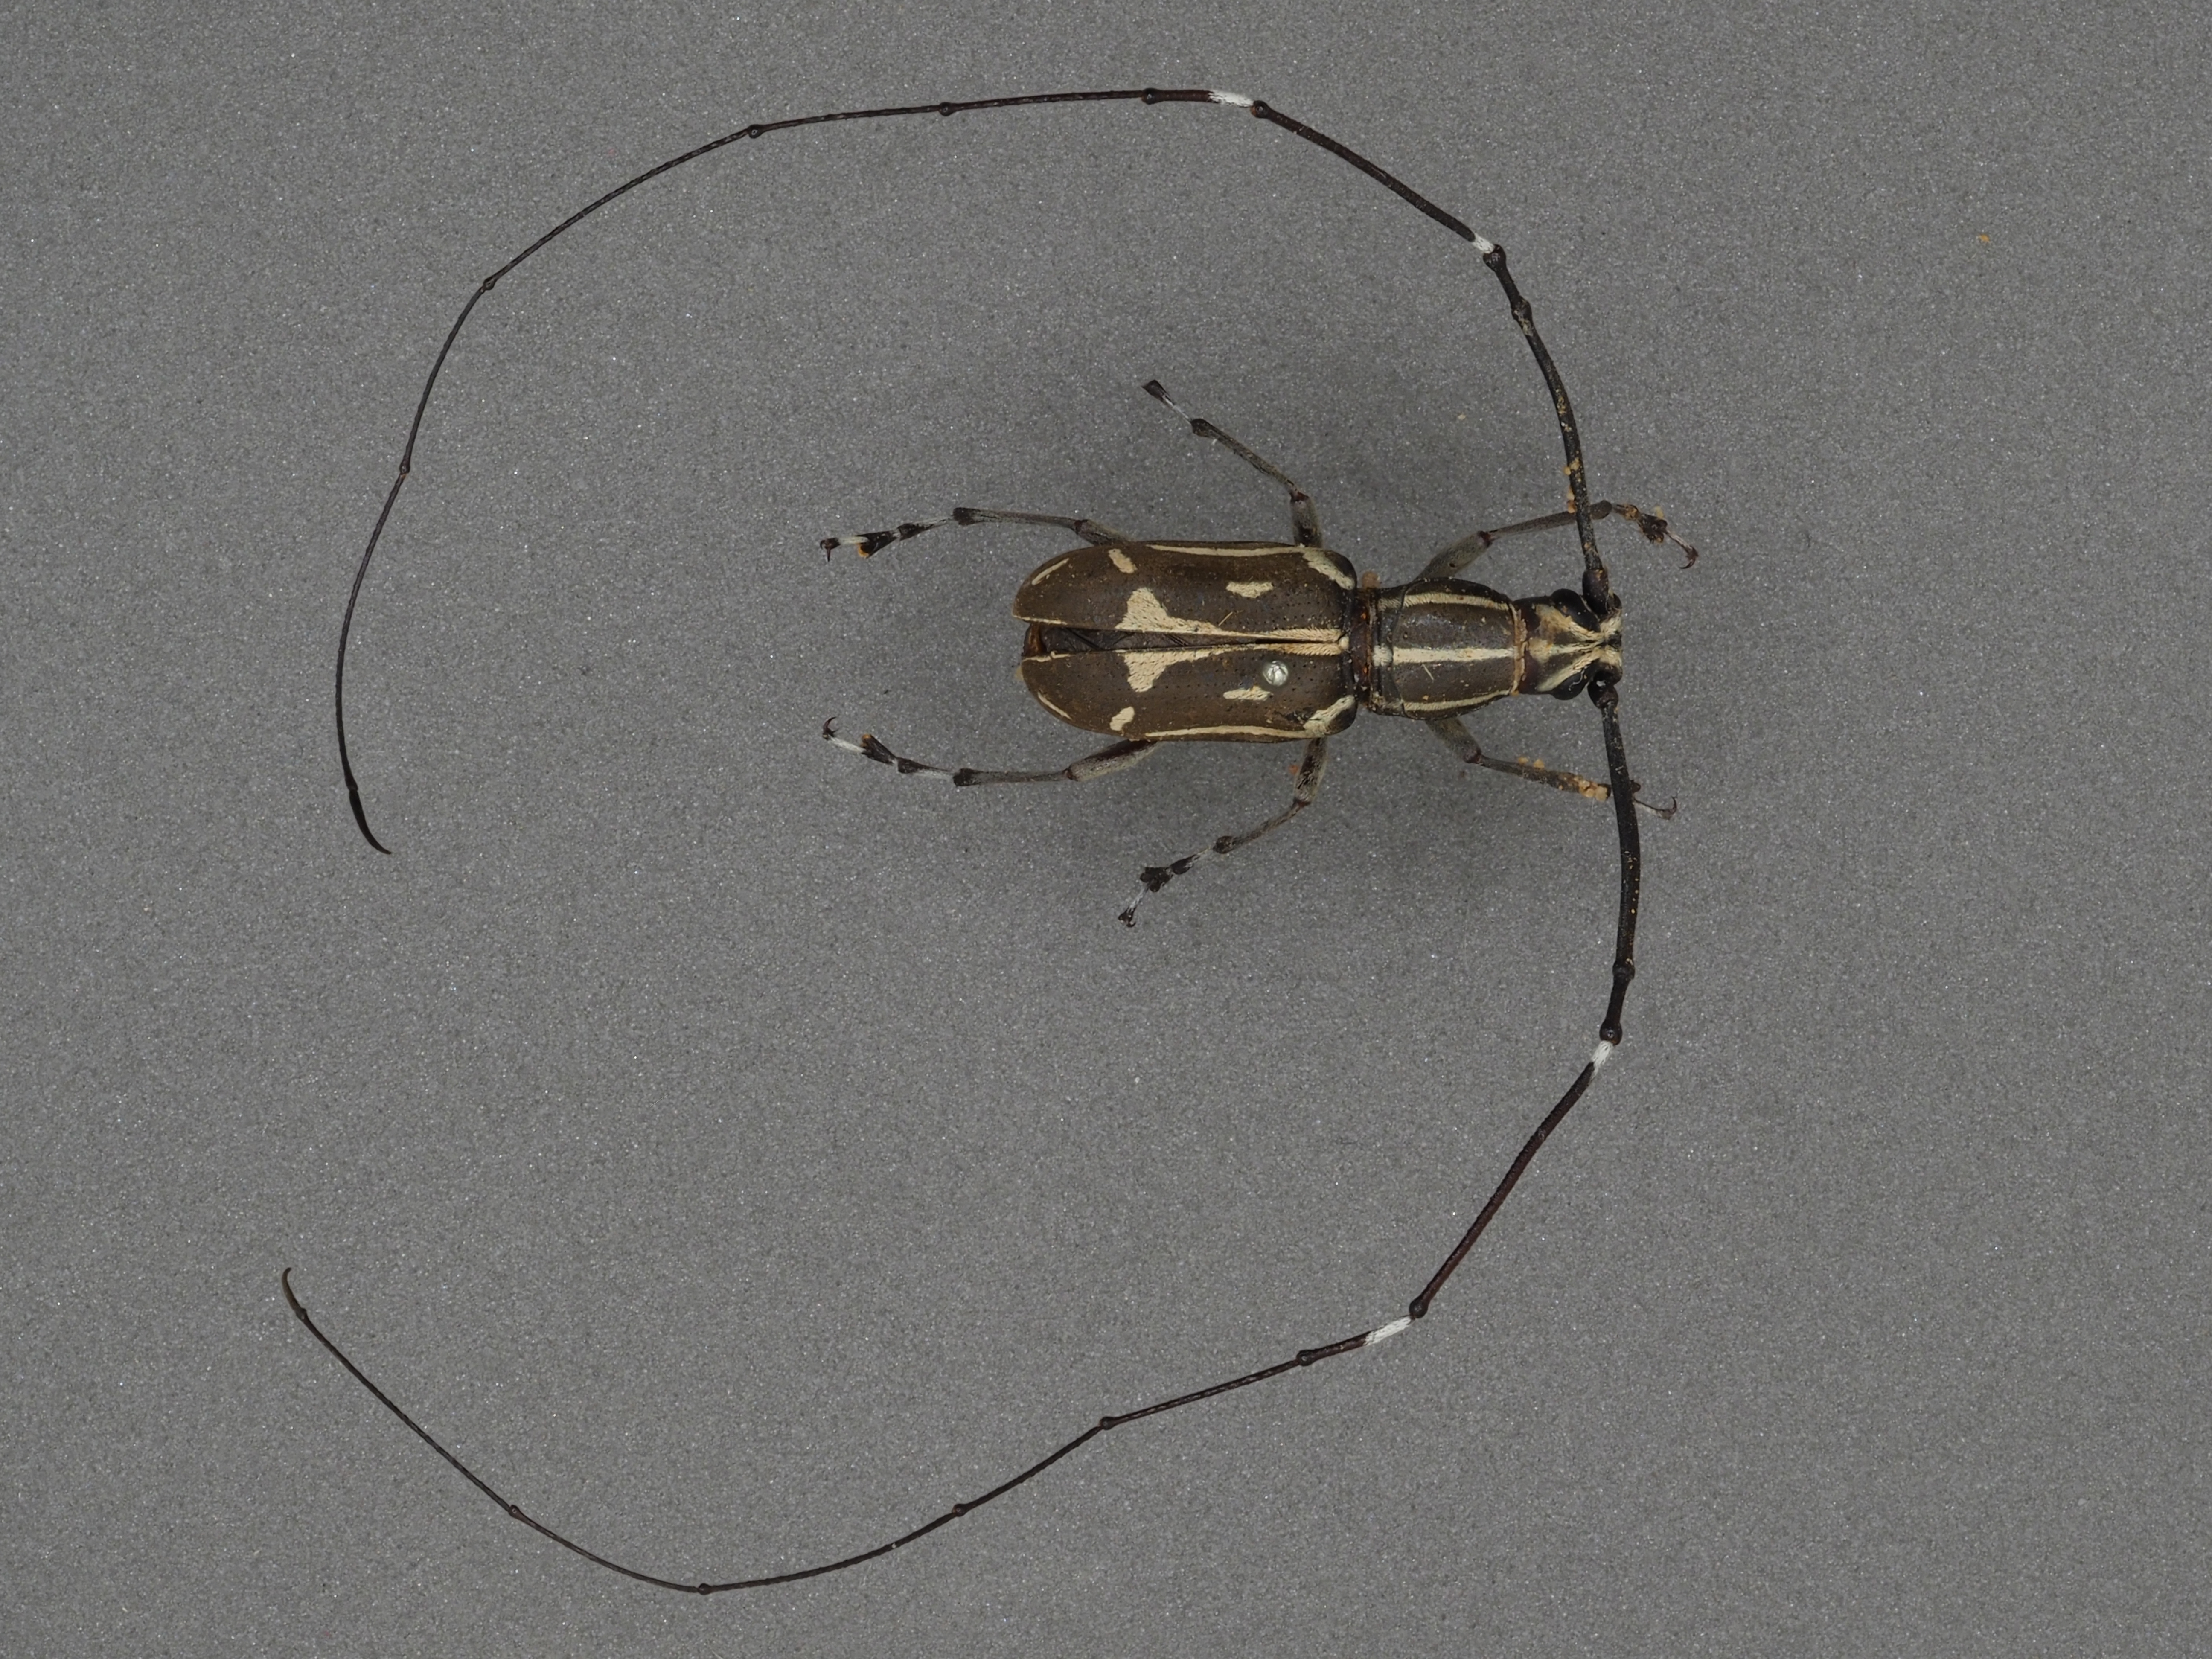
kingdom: Animalia
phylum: Arthropoda
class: Insecta
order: Coleoptera
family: Anthribidae
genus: Xenocerus
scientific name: Xenocerus flagellatus
